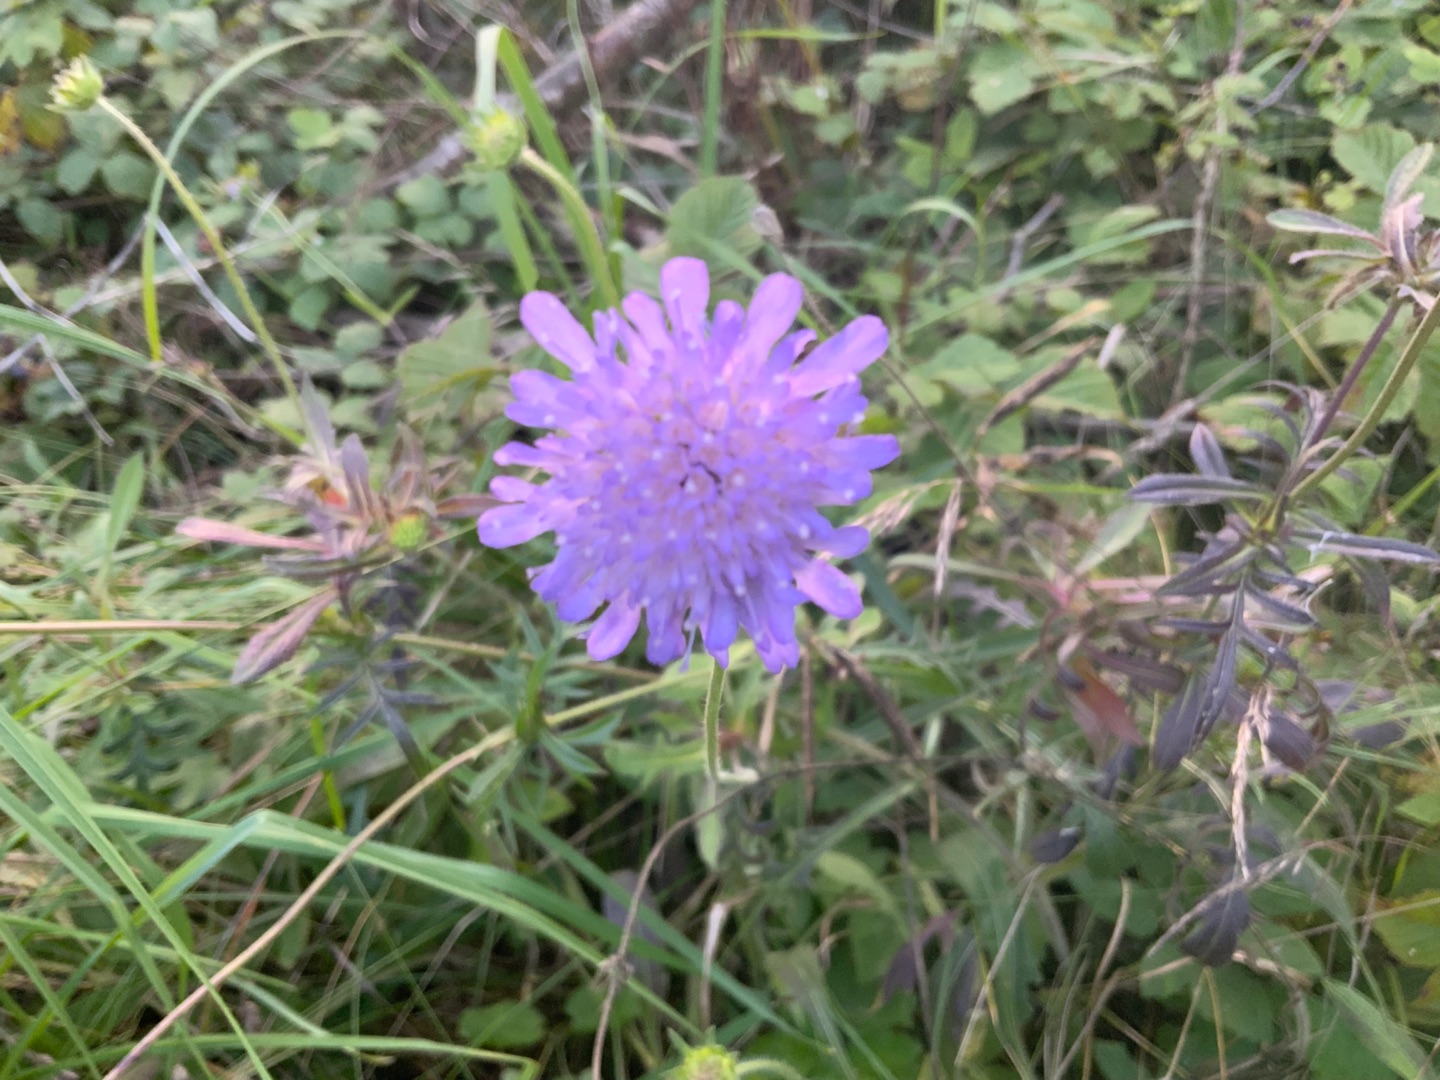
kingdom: Plantae
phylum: Tracheophyta
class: Magnoliopsida
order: Dipsacales
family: Caprifoliaceae
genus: Knautia
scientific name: Knautia arvensis
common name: Blåhat
